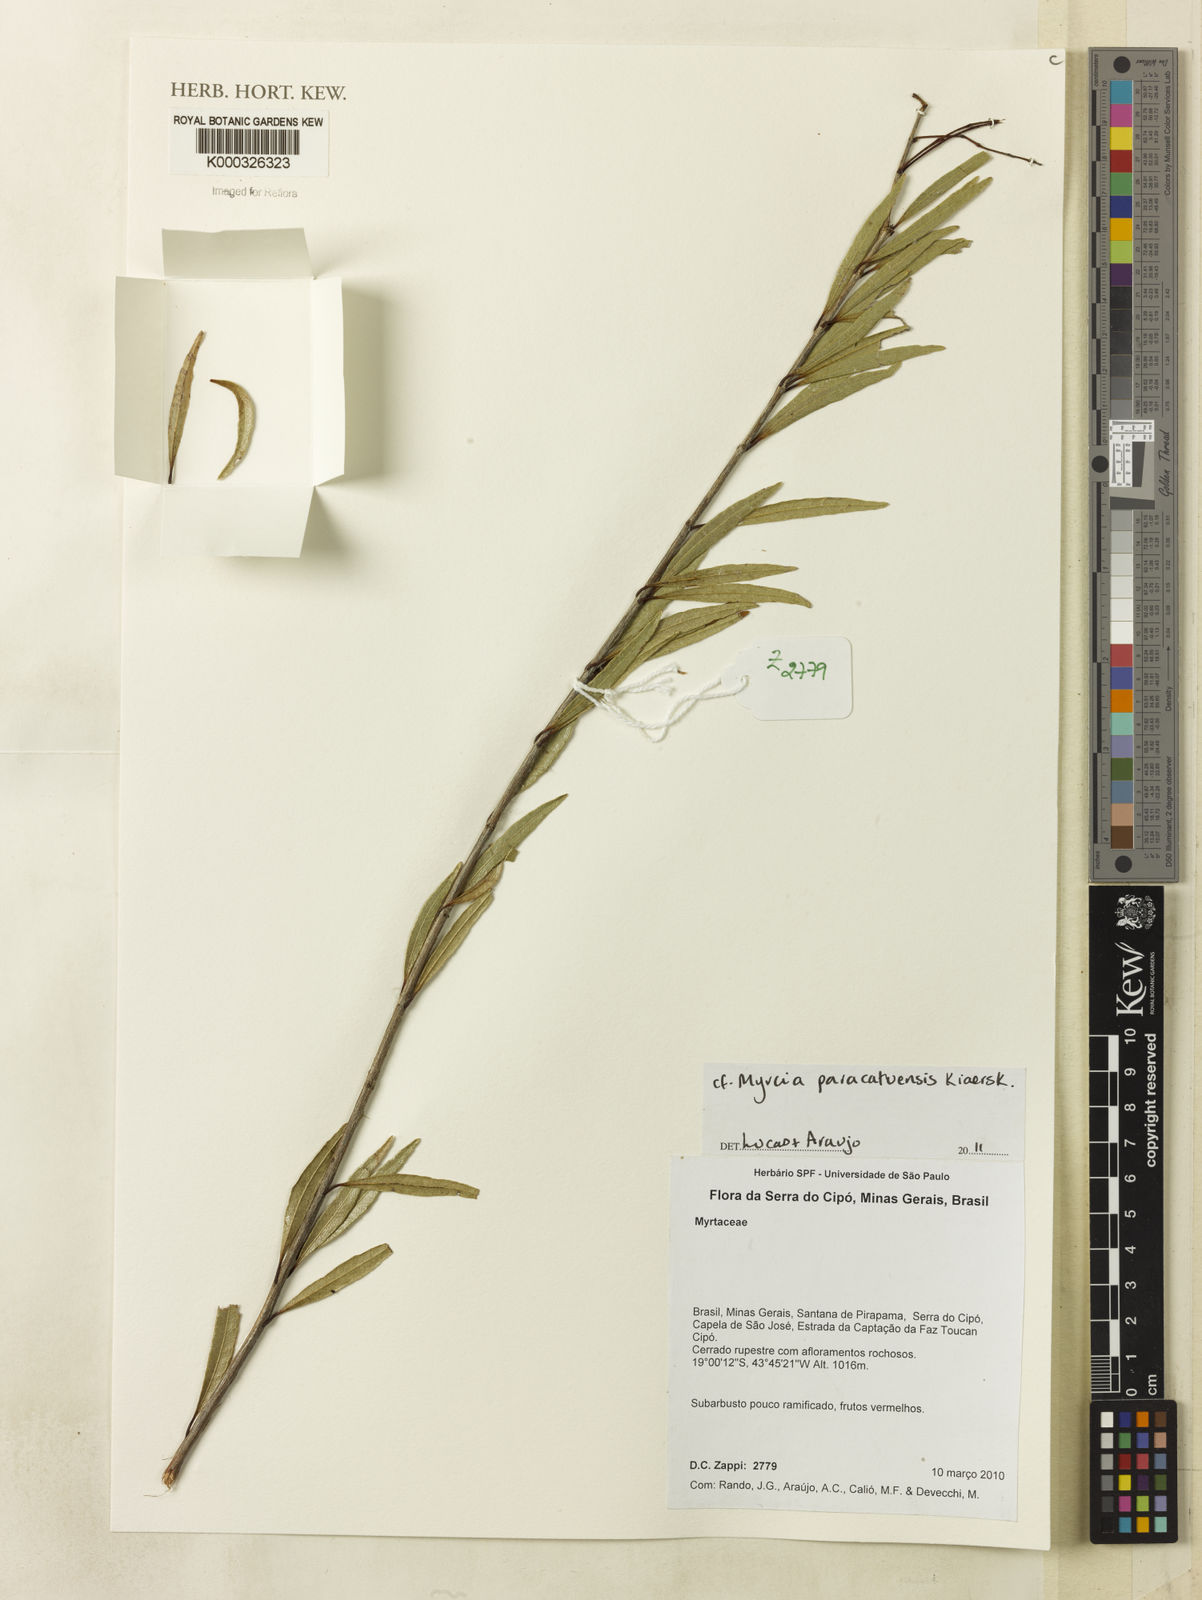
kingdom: Plantae
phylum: Tracheophyta
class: Magnoliopsida
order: Myrtales
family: Myrtaceae
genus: Myrcia
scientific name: Myrcia guianensis
